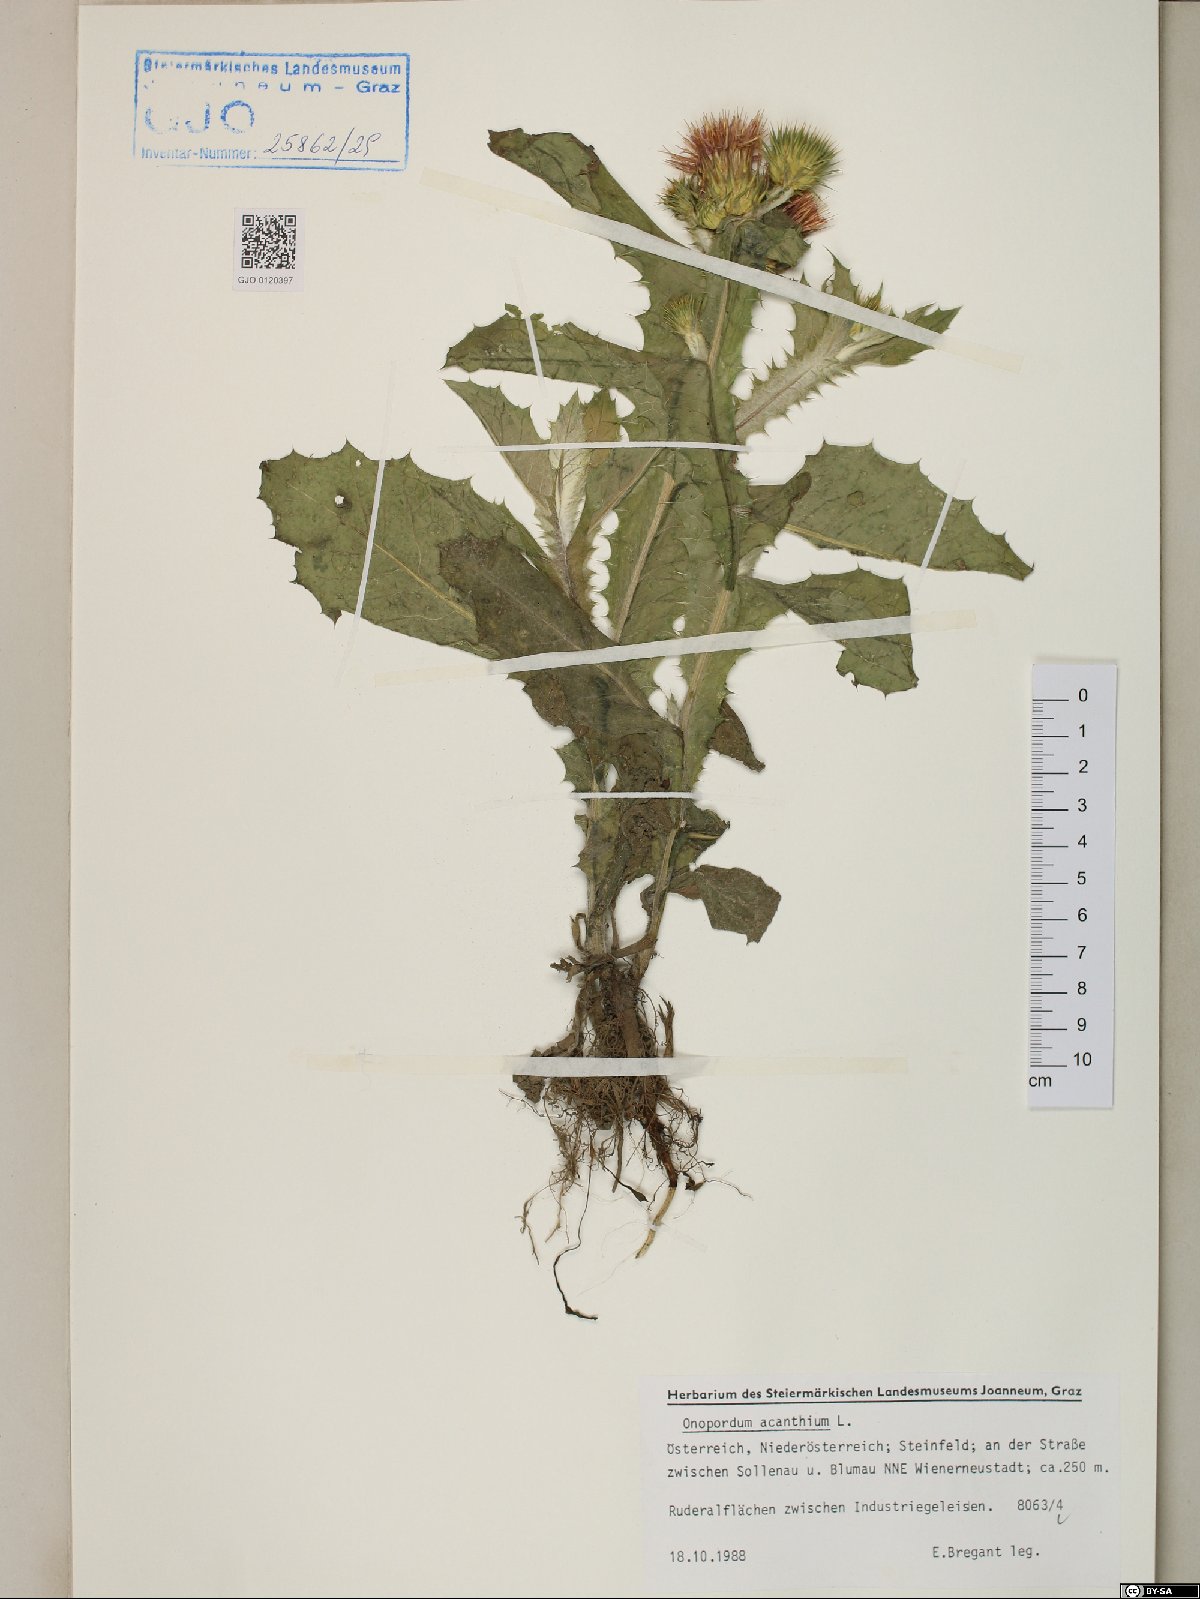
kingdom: Plantae
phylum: Tracheophyta
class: Magnoliopsida
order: Asterales
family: Asteraceae
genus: Onopordum
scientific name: Onopordum acanthium
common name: Scotch thistle
